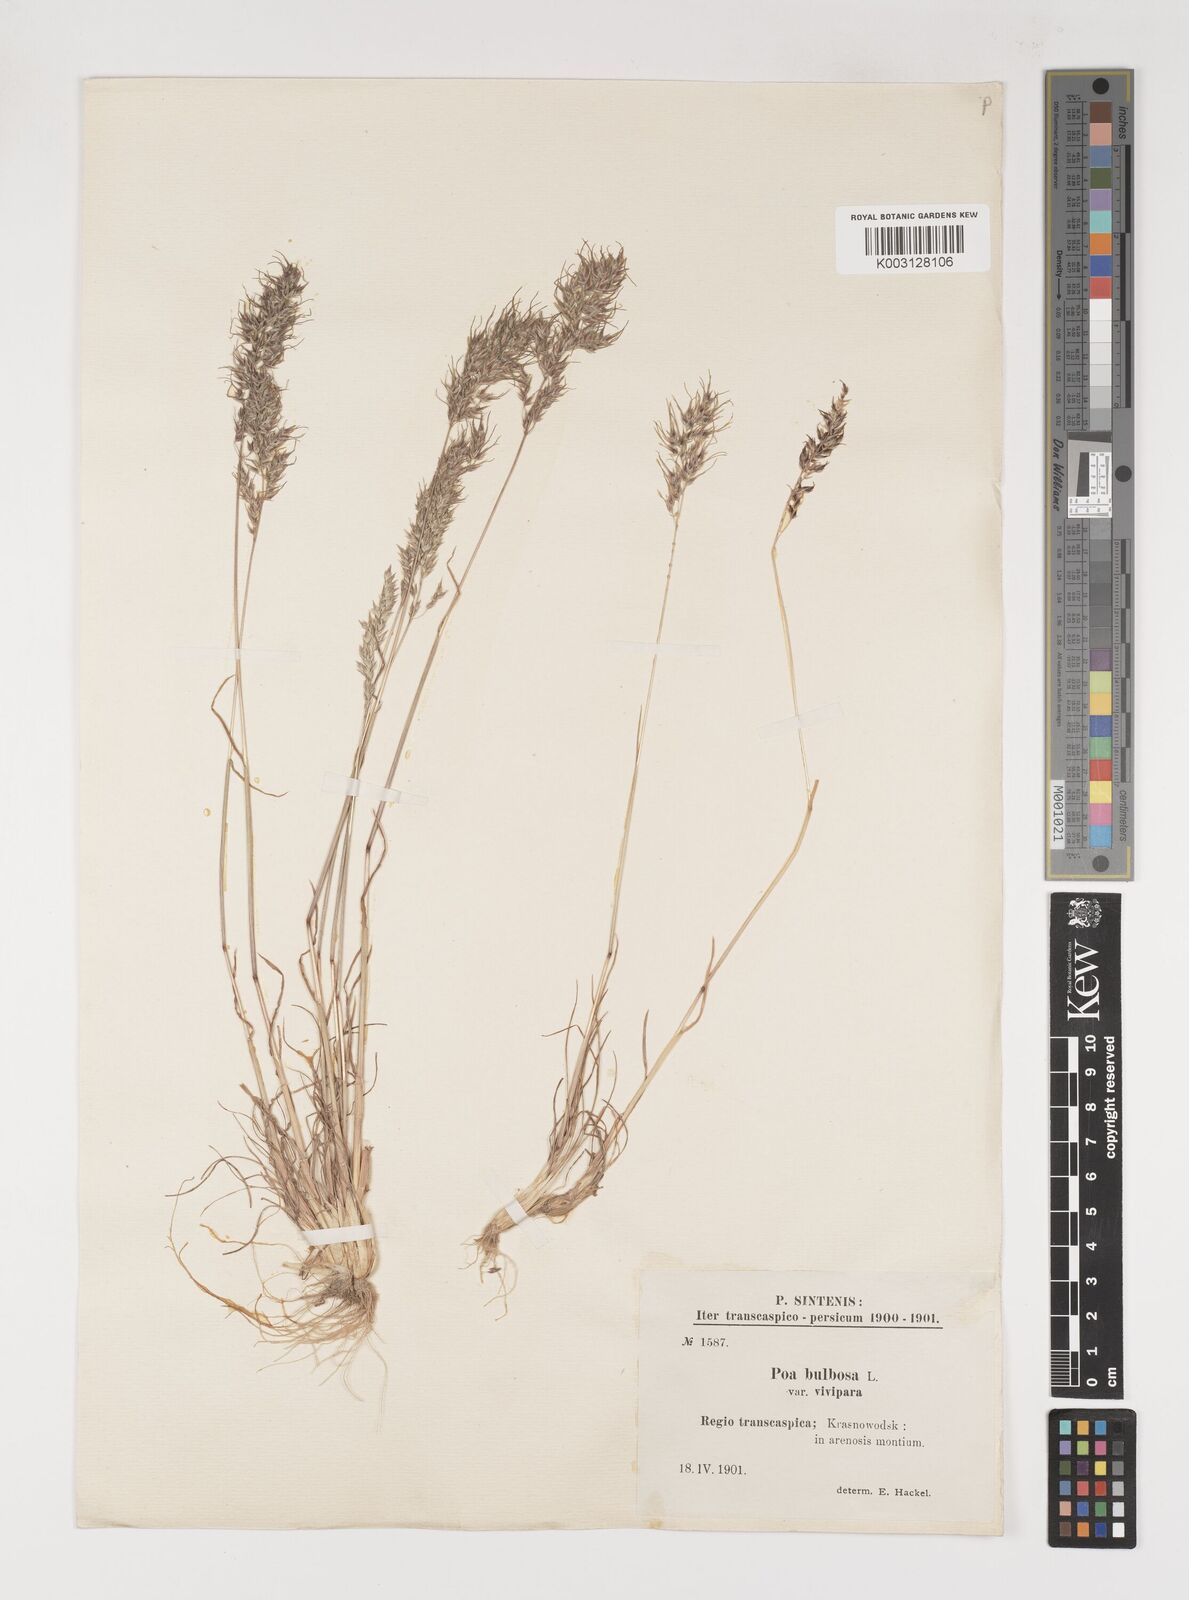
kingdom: Plantae
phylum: Tracheophyta
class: Liliopsida
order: Poales
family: Poaceae
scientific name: Poaceae
